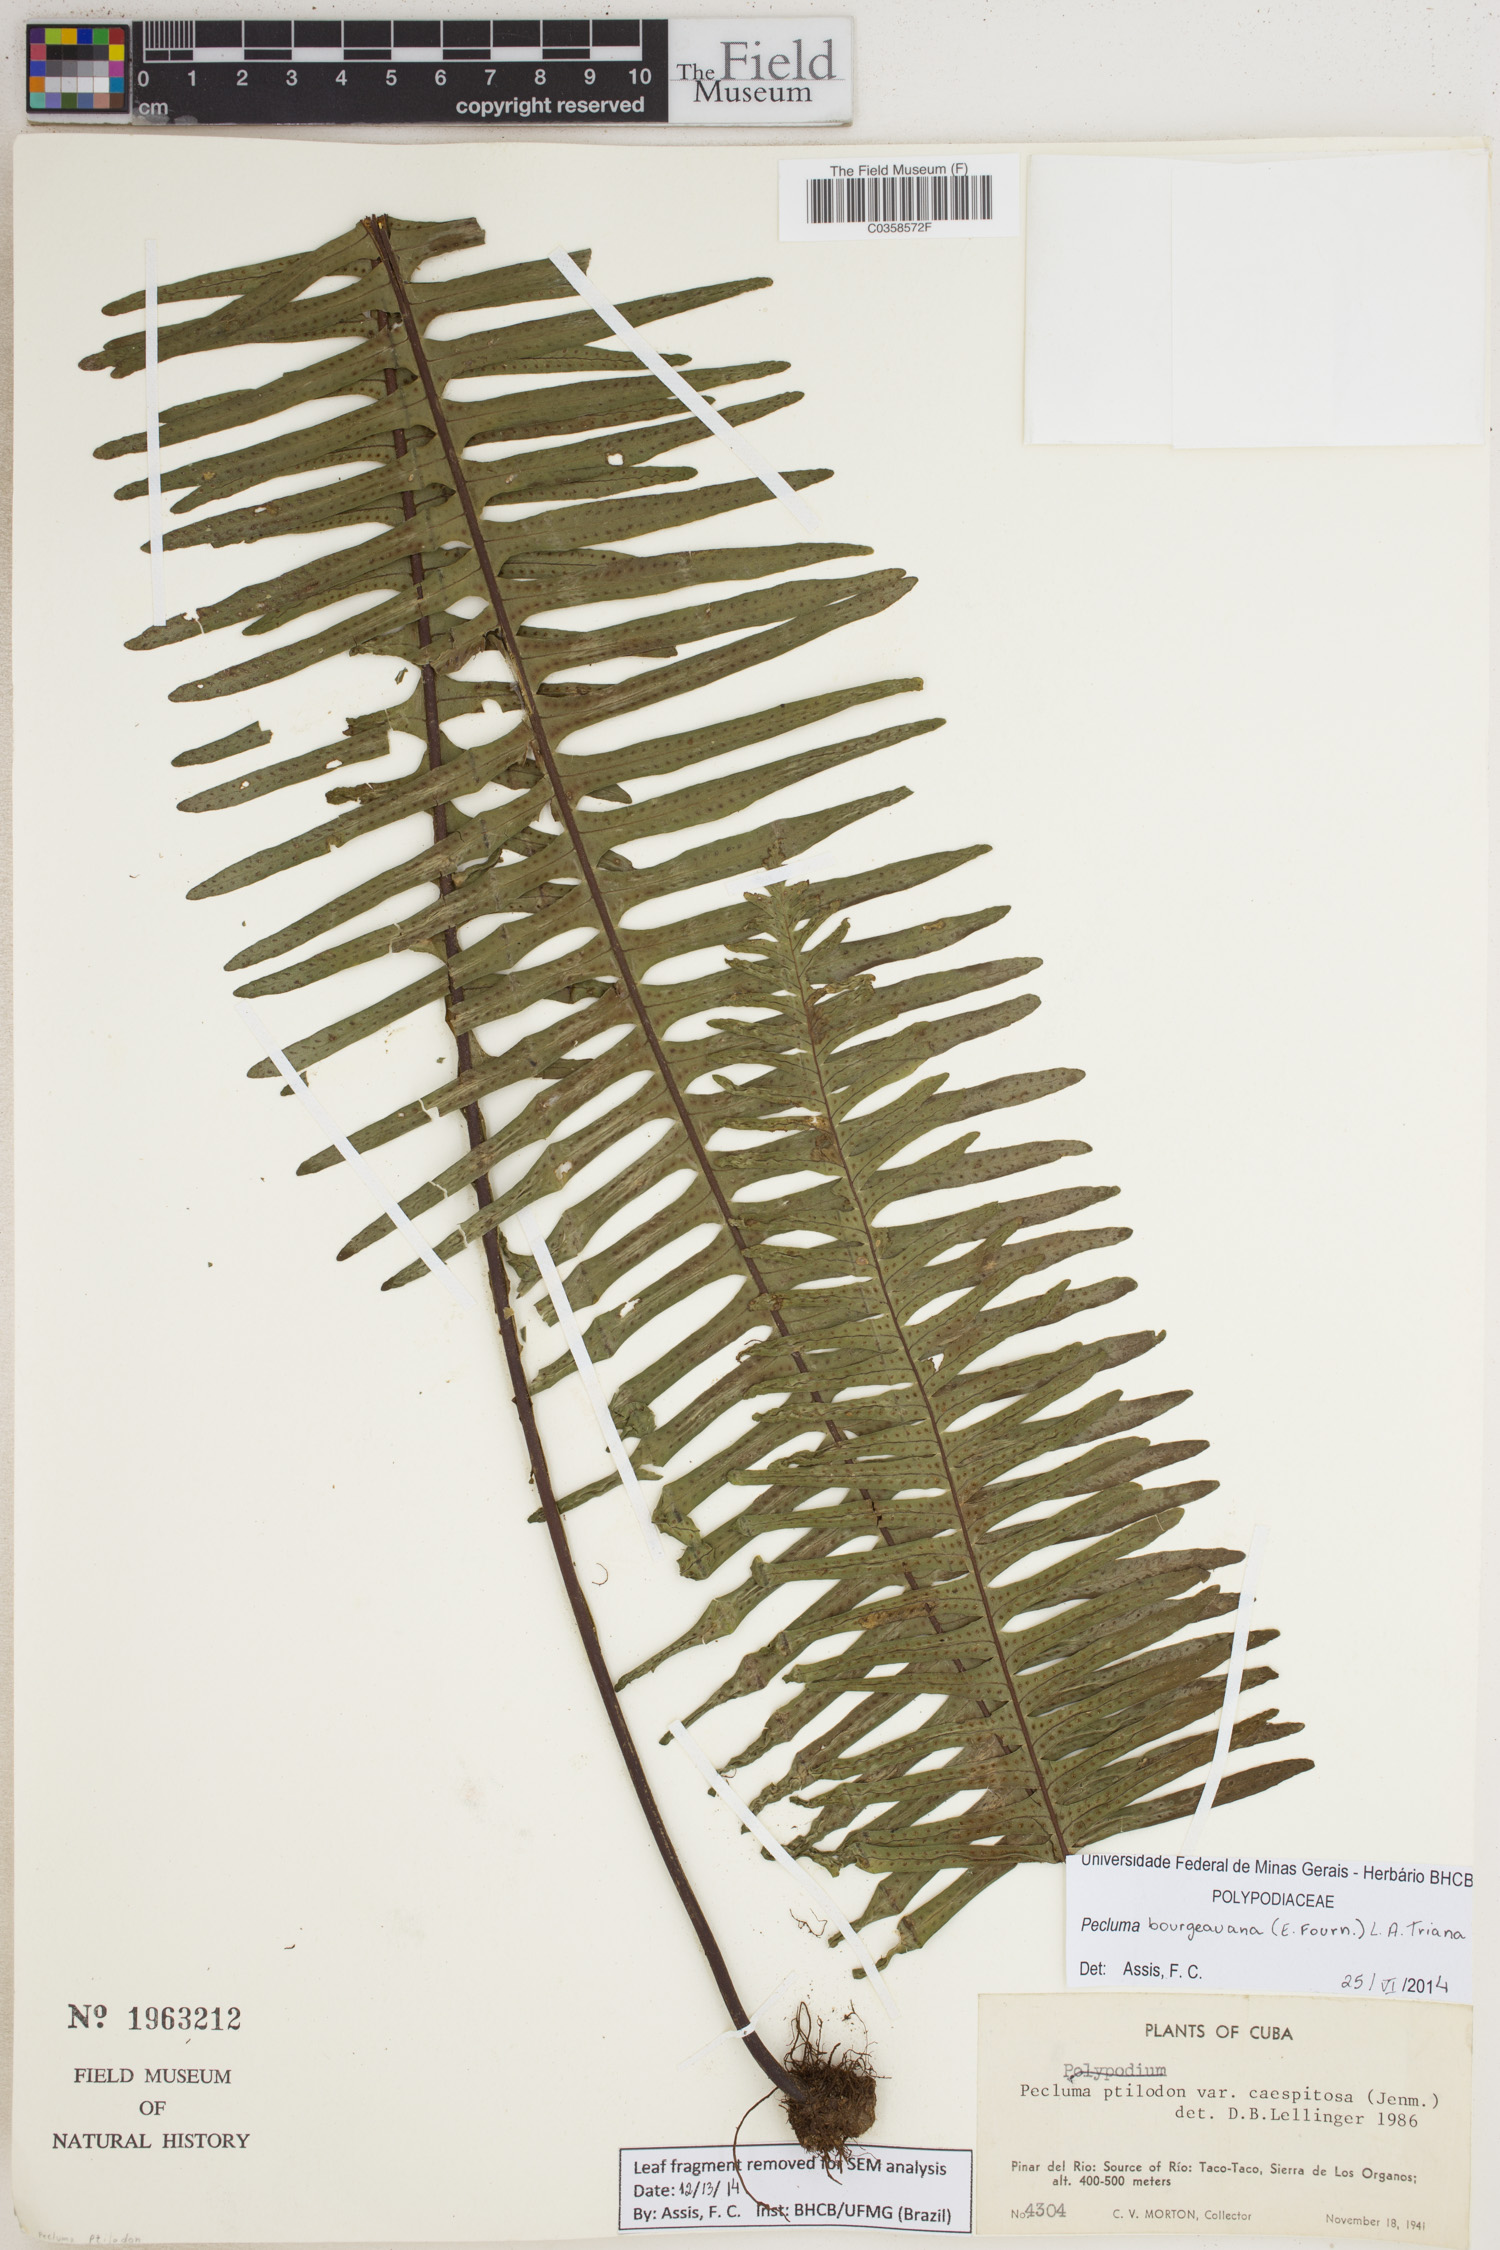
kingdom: Plantae
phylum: Tracheophyta
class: Polypodiopsida
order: Polypodiales
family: Polypodiaceae
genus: Pecluma
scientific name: Pecluma bourgeauana
